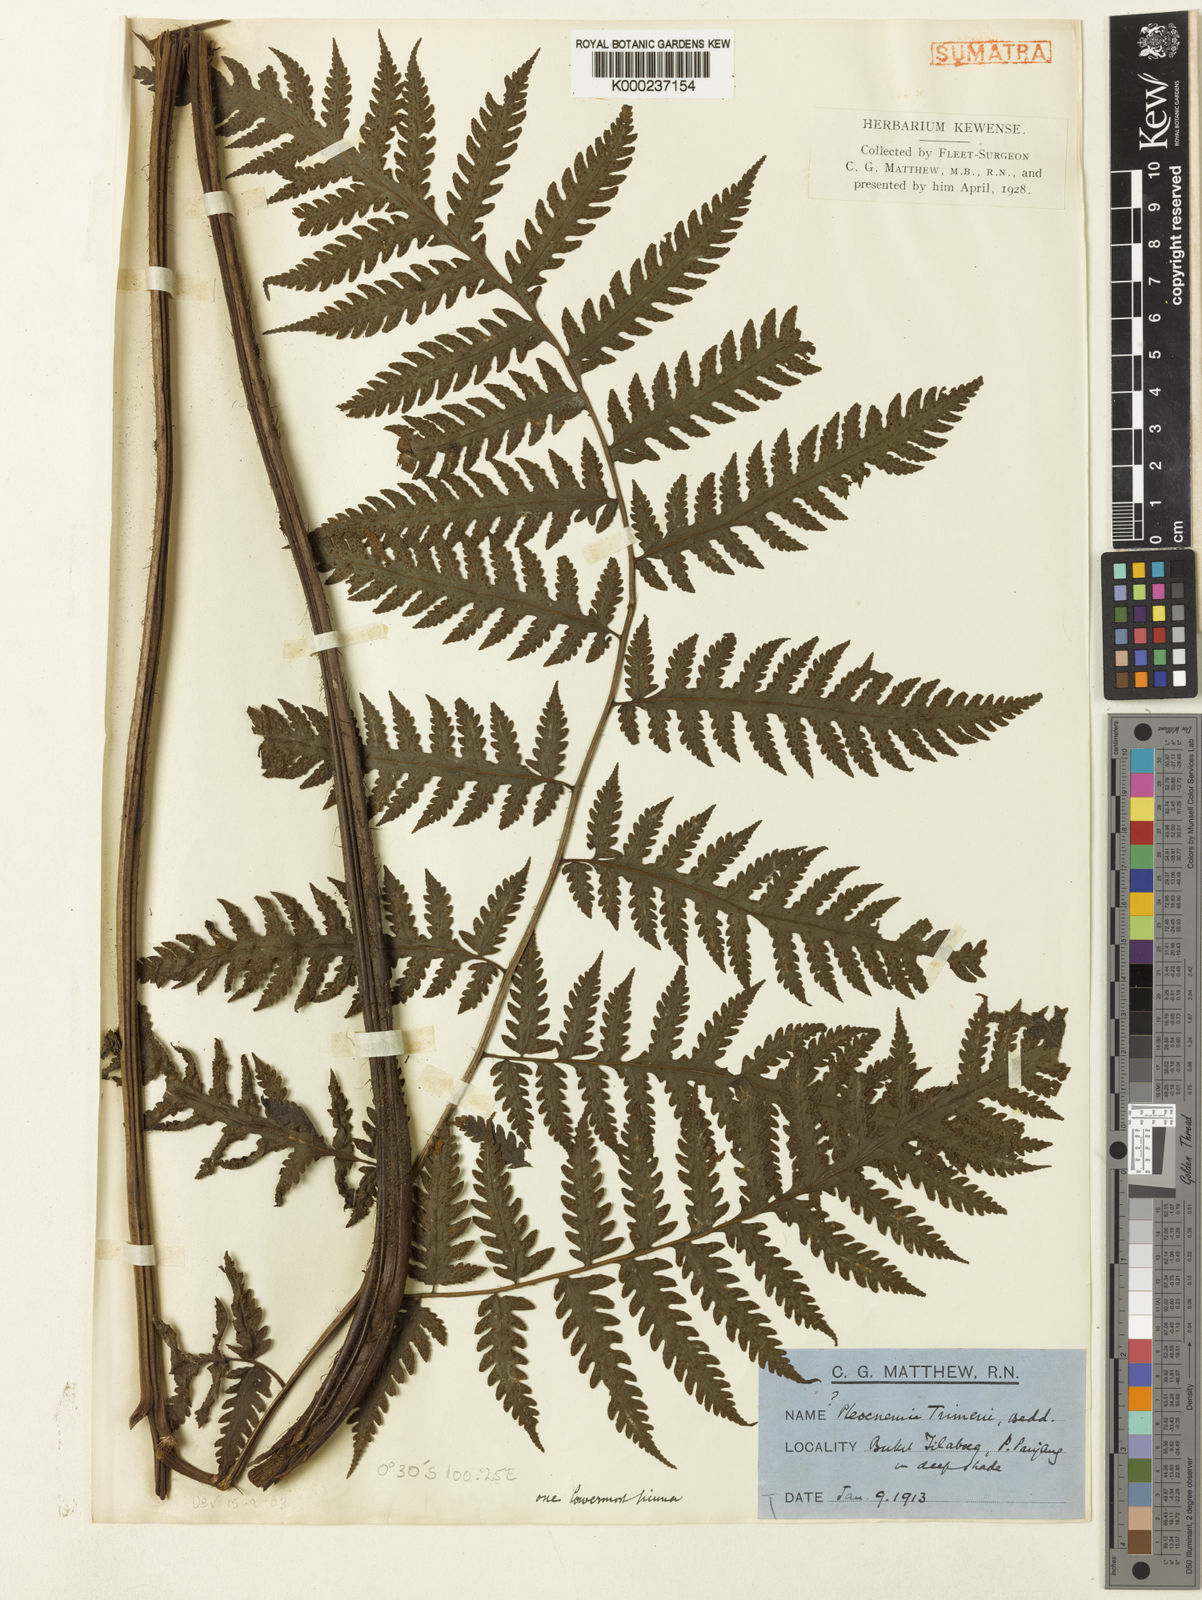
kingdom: Plantae
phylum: Tracheophyta
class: Polypodiopsida
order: Polypodiales
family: Tectariaceae
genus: Tectaria
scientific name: Tectaria multicaudata
